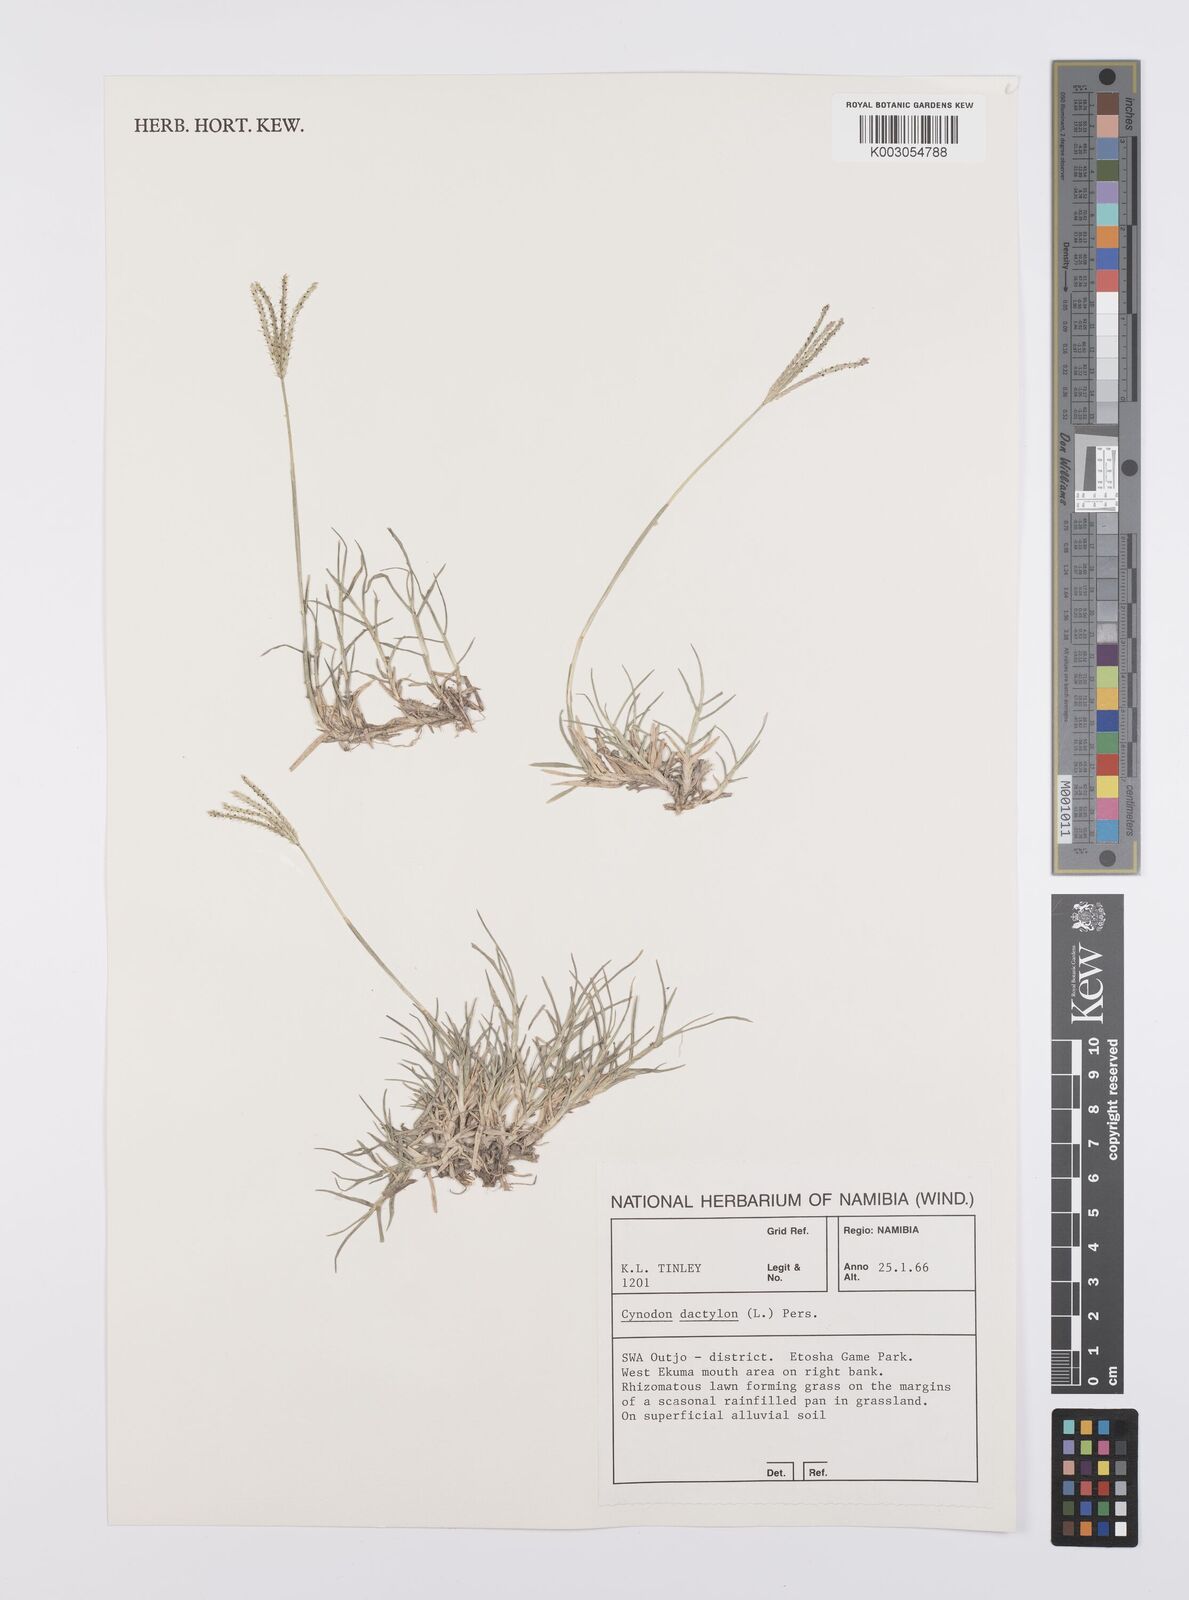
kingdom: Plantae
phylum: Tracheophyta
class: Liliopsida
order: Poales
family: Poaceae
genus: Cynodon
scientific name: Cynodon dactylon
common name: Bermuda grass
